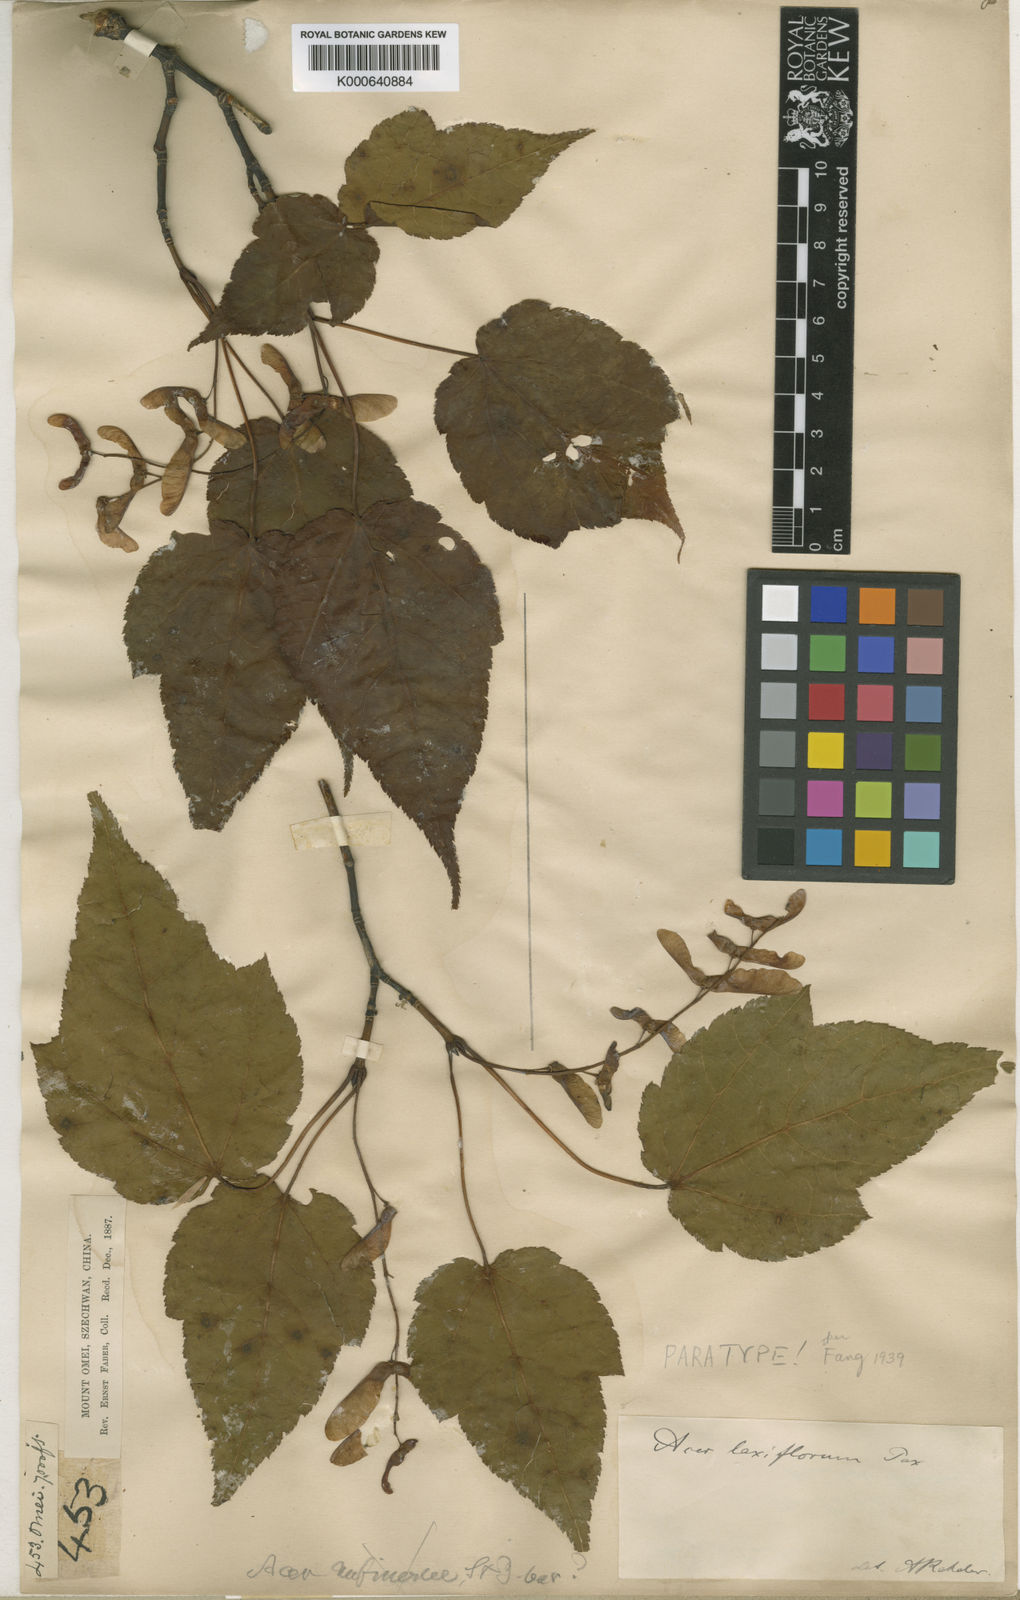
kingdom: Plantae
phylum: Tracheophyta
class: Magnoliopsida
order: Sapindales
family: Sapindaceae
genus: Acer
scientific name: Acer laxiflorum
